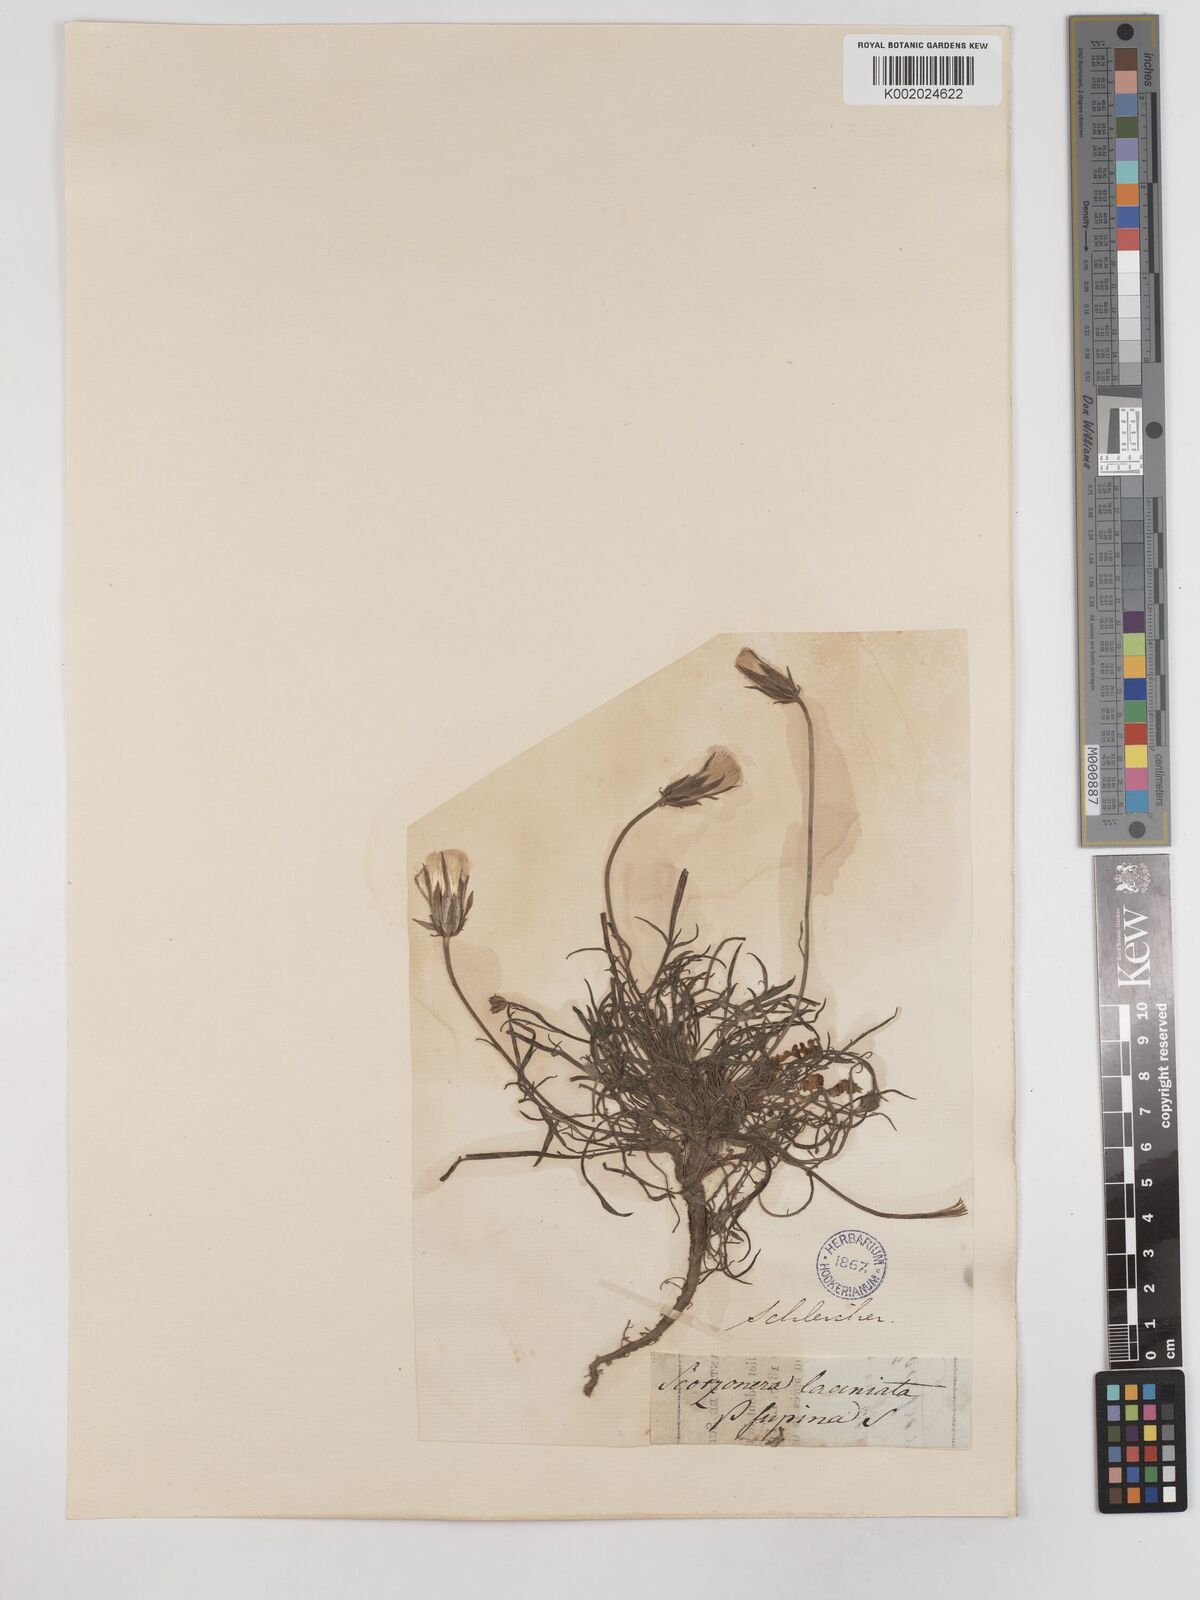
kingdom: Plantae
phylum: Tracheophyta
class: Magnoliopsida
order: Asterales
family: Asteraceae
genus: Scorzonera
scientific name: Scorzonera laciniata
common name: Cutleaf vipergrass
